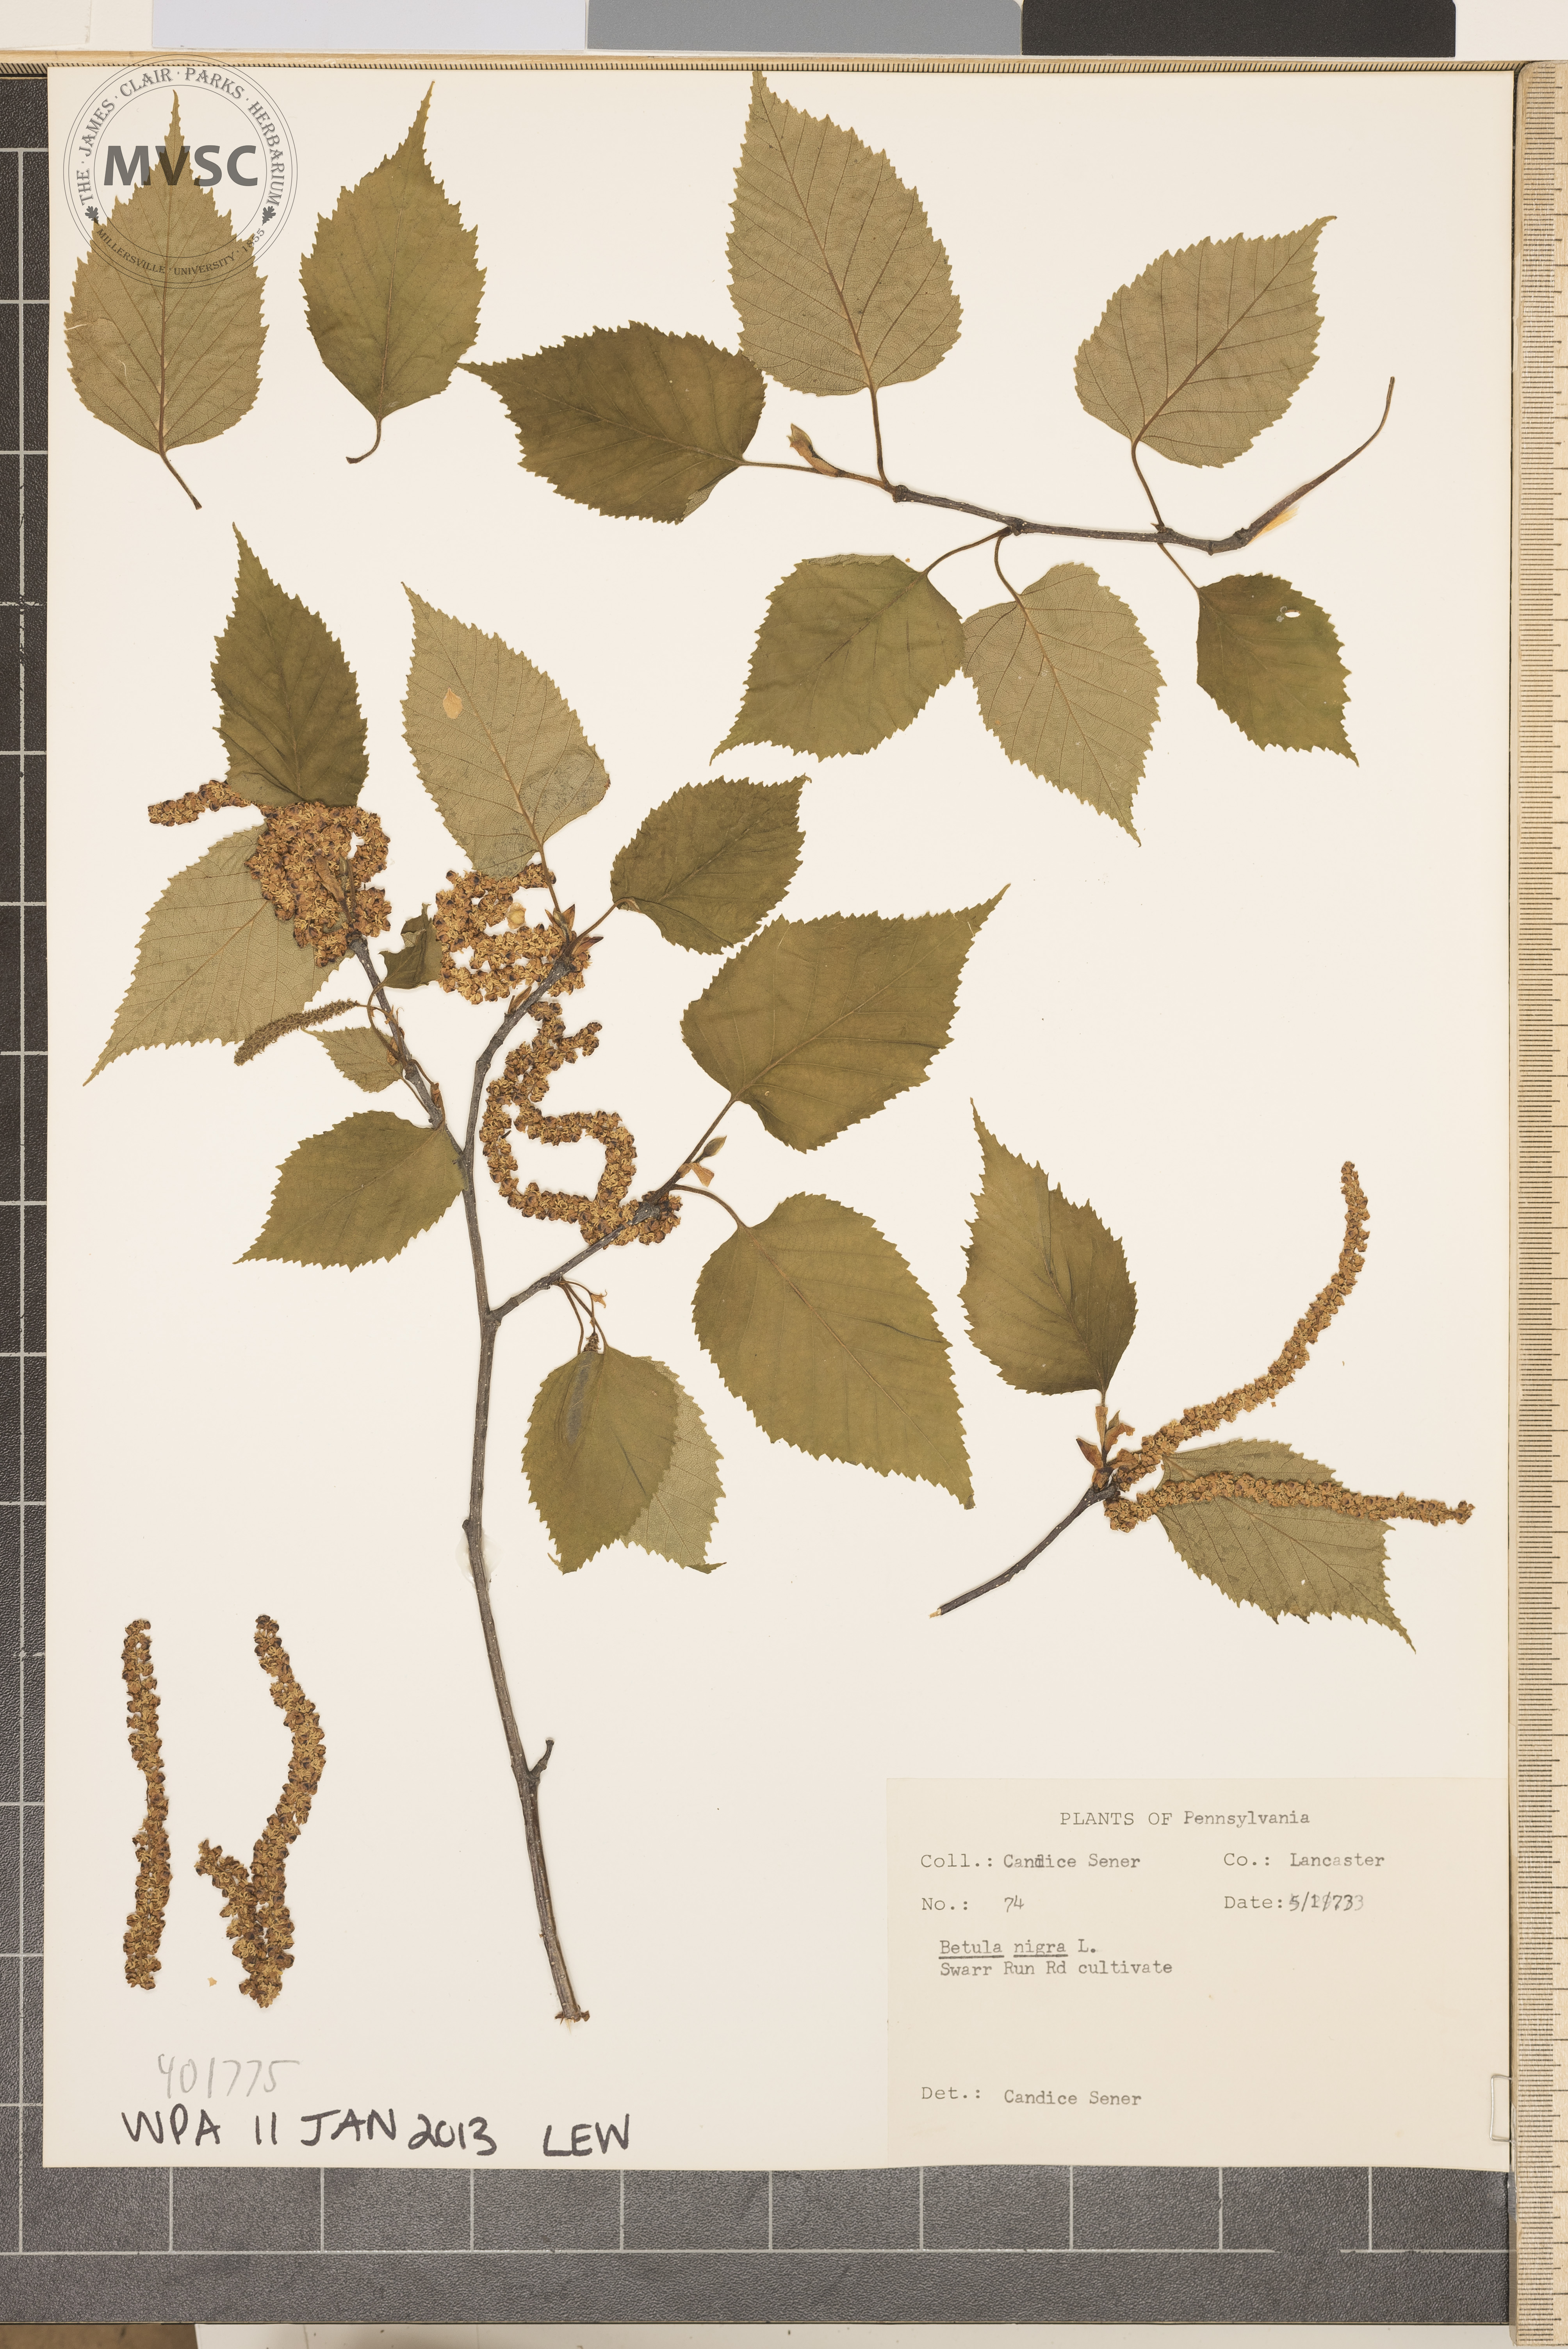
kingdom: Plantae
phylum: Tracheophyta
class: Magnoliopsida
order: Fagales
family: Betulaceae
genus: Betula
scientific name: Betula nigra
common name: Black Birch
